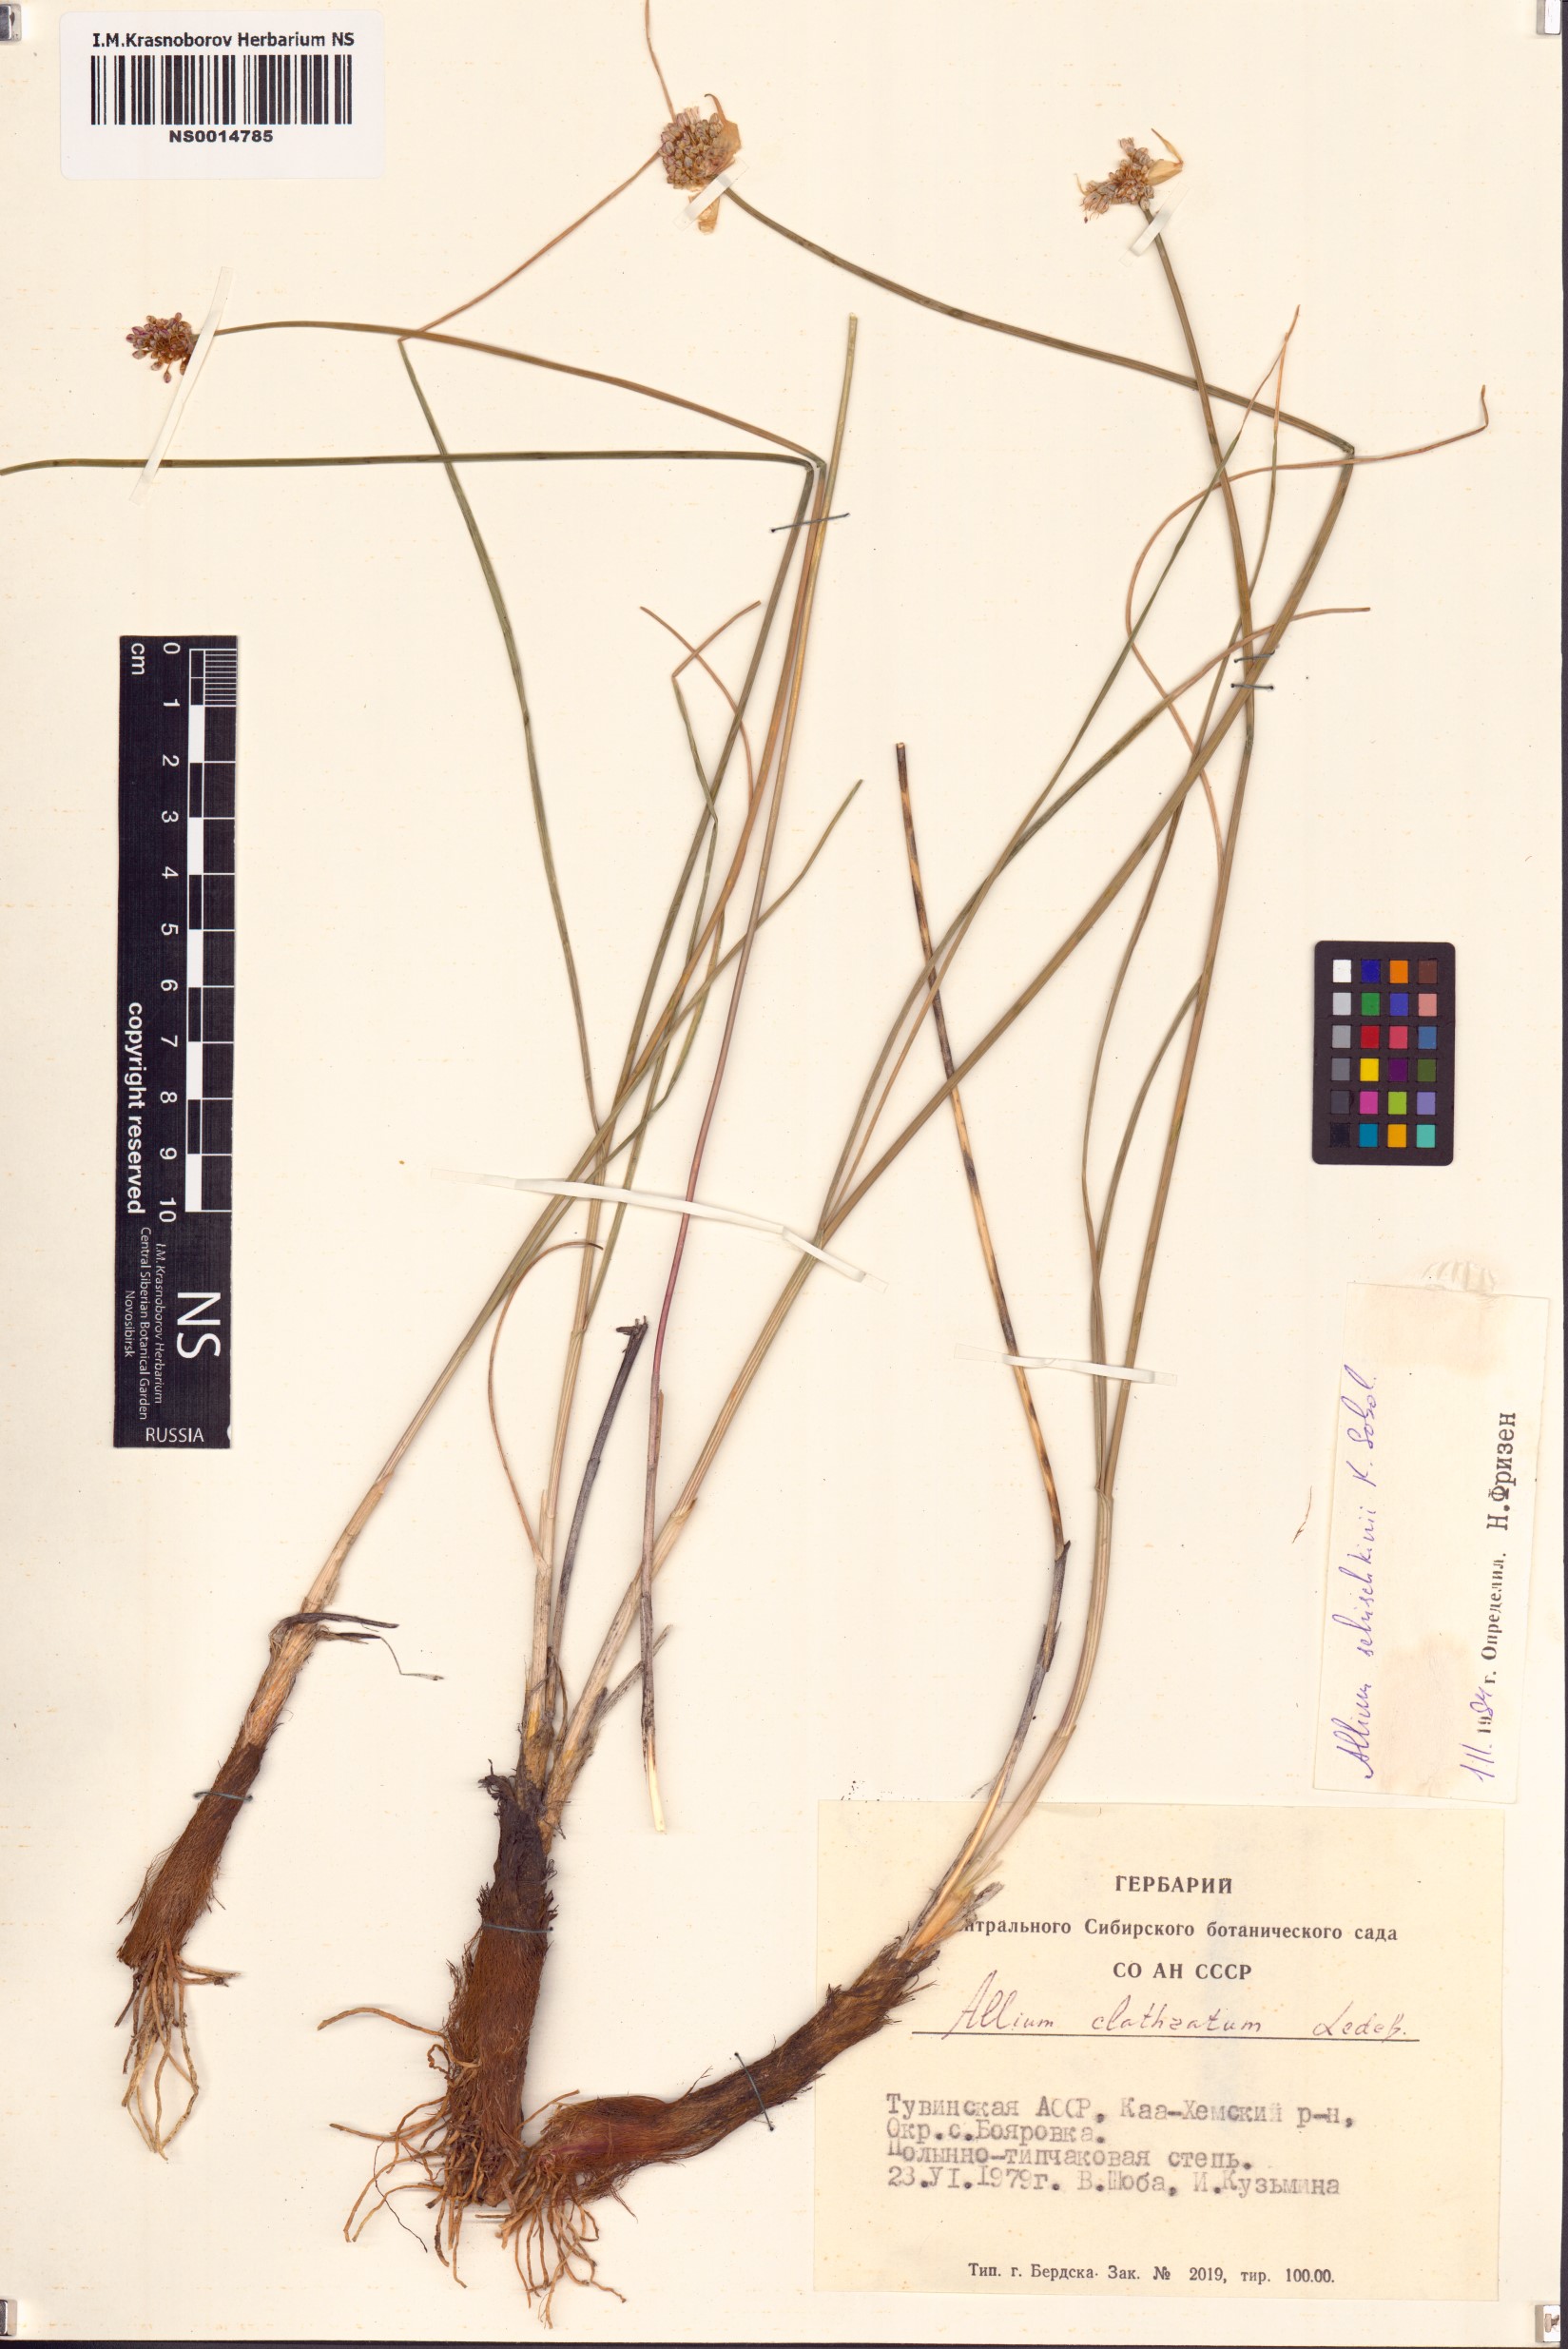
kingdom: Plantae
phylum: Tracheophyta
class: Liliopsida
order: Asparagales
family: Amaryllidaceae
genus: Allium
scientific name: Allium schischkinii
